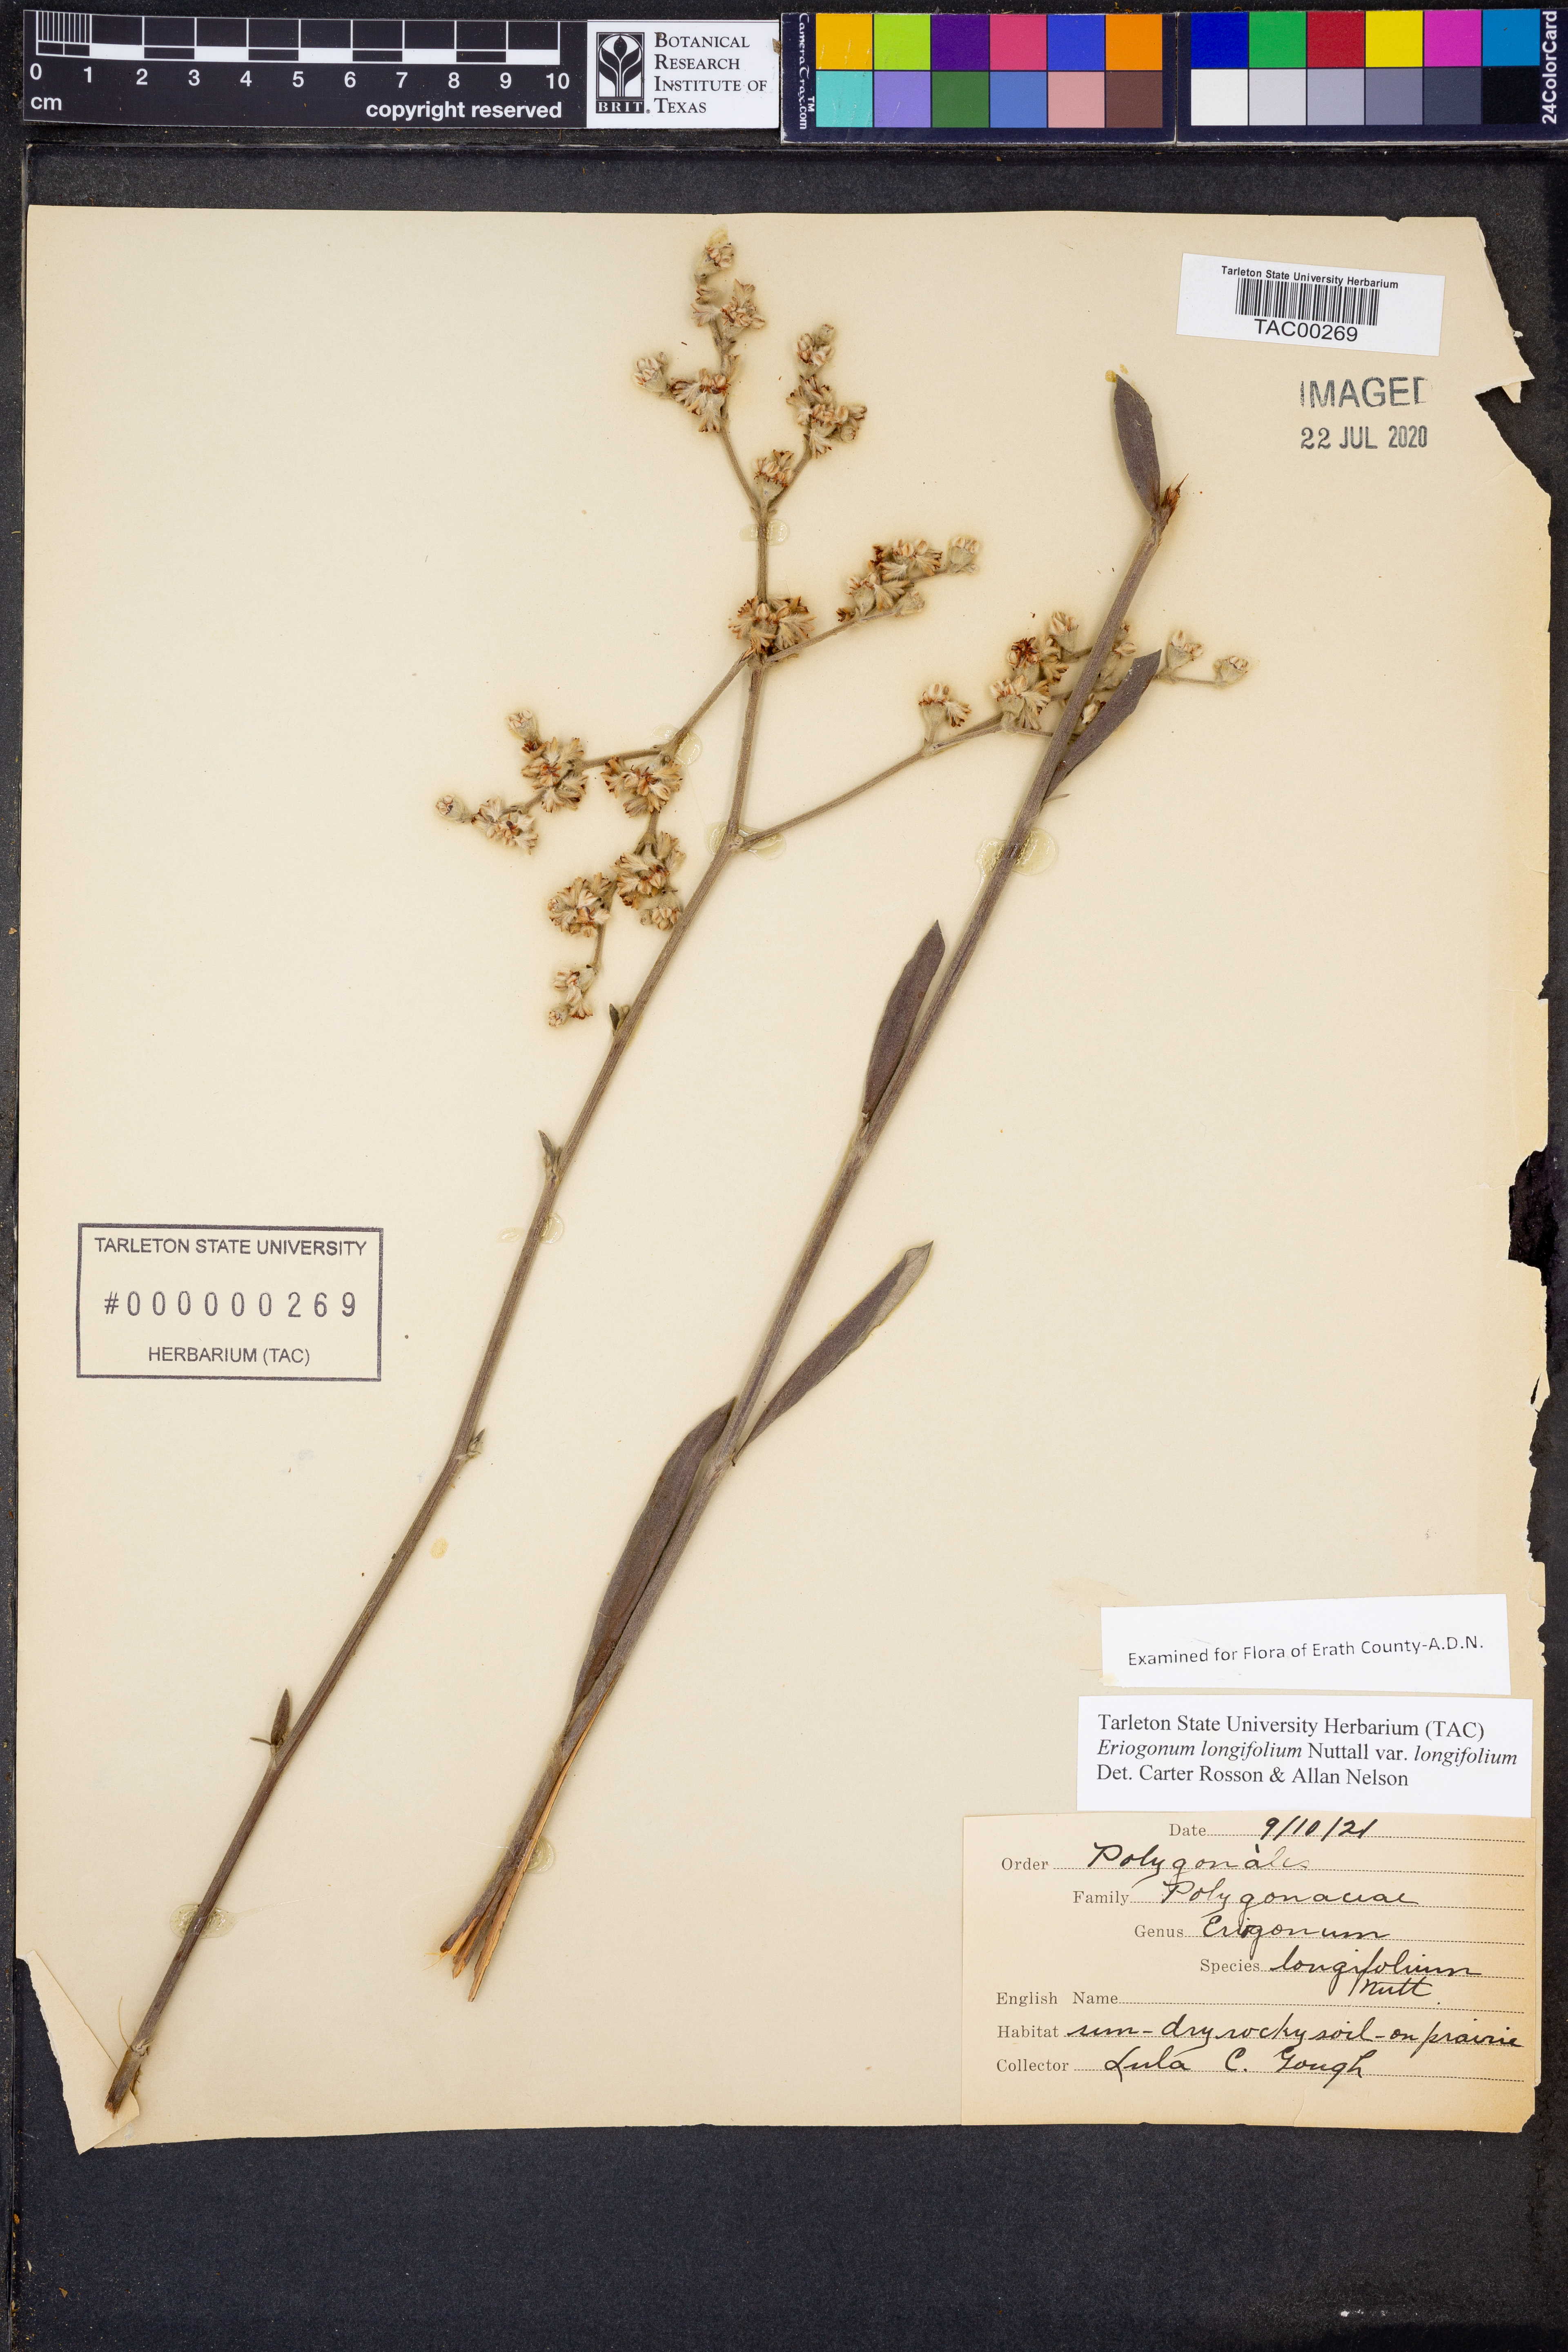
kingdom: Plantae
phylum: Tracheophyta
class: Magnoliopsida
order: Caryophyllales
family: Polygonaceae
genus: Eriogonum
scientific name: Eriogonum longifolium
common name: Longleaf wild buckwheat
